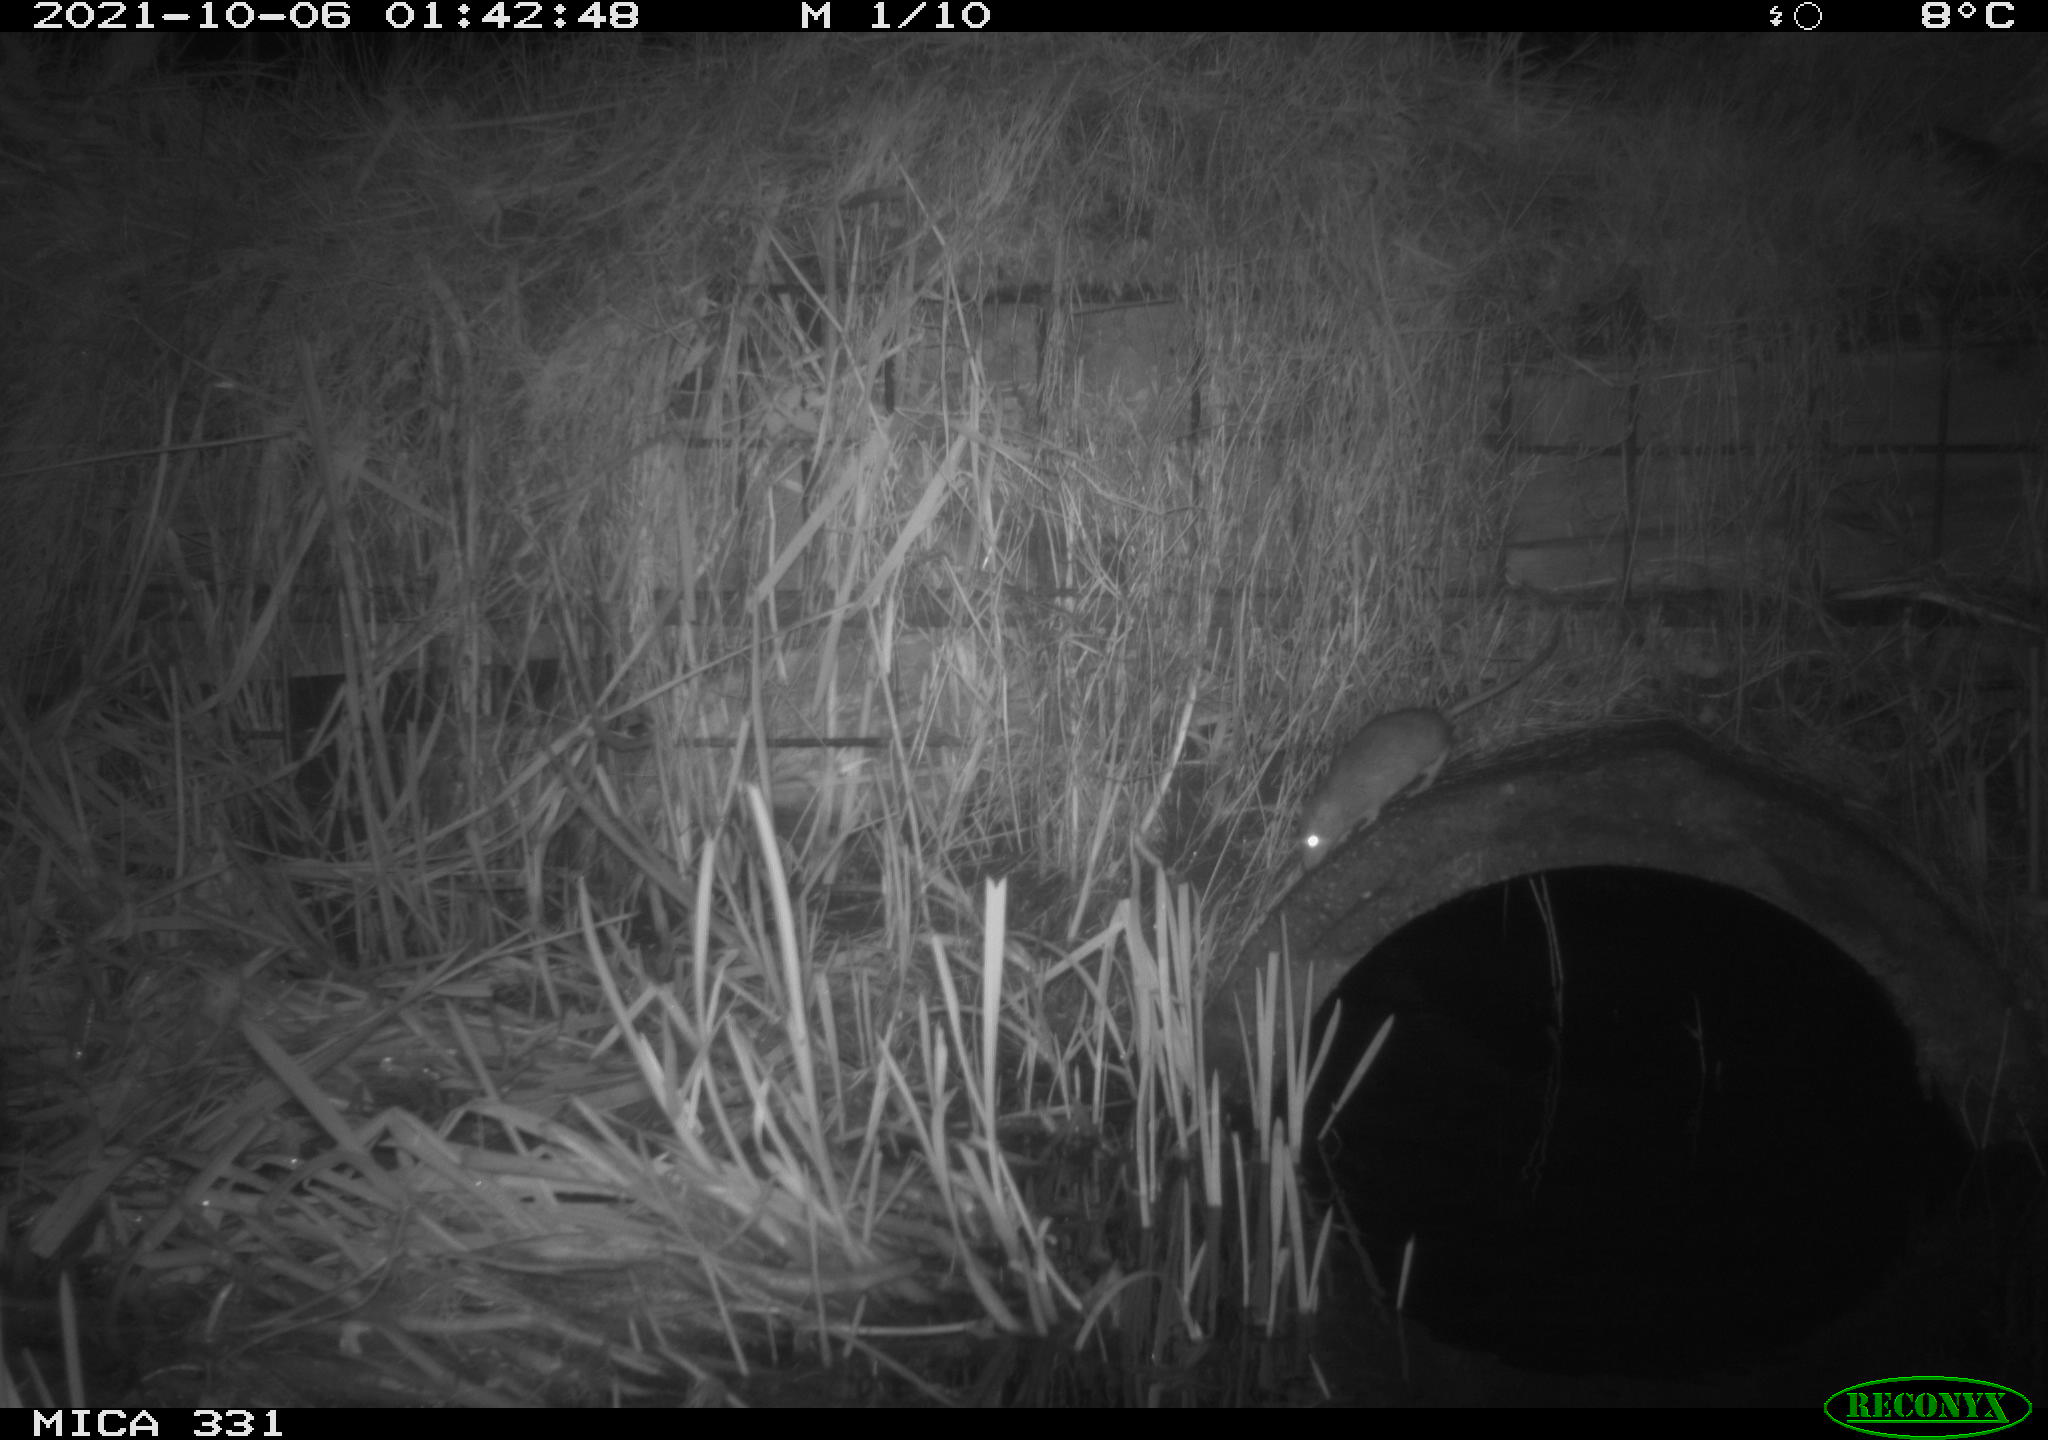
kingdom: Animalia
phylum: Chordata
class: Mammalia
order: Rodentia
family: Muridae
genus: Rattus
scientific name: Rattus norvegicus
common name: Brown rat
